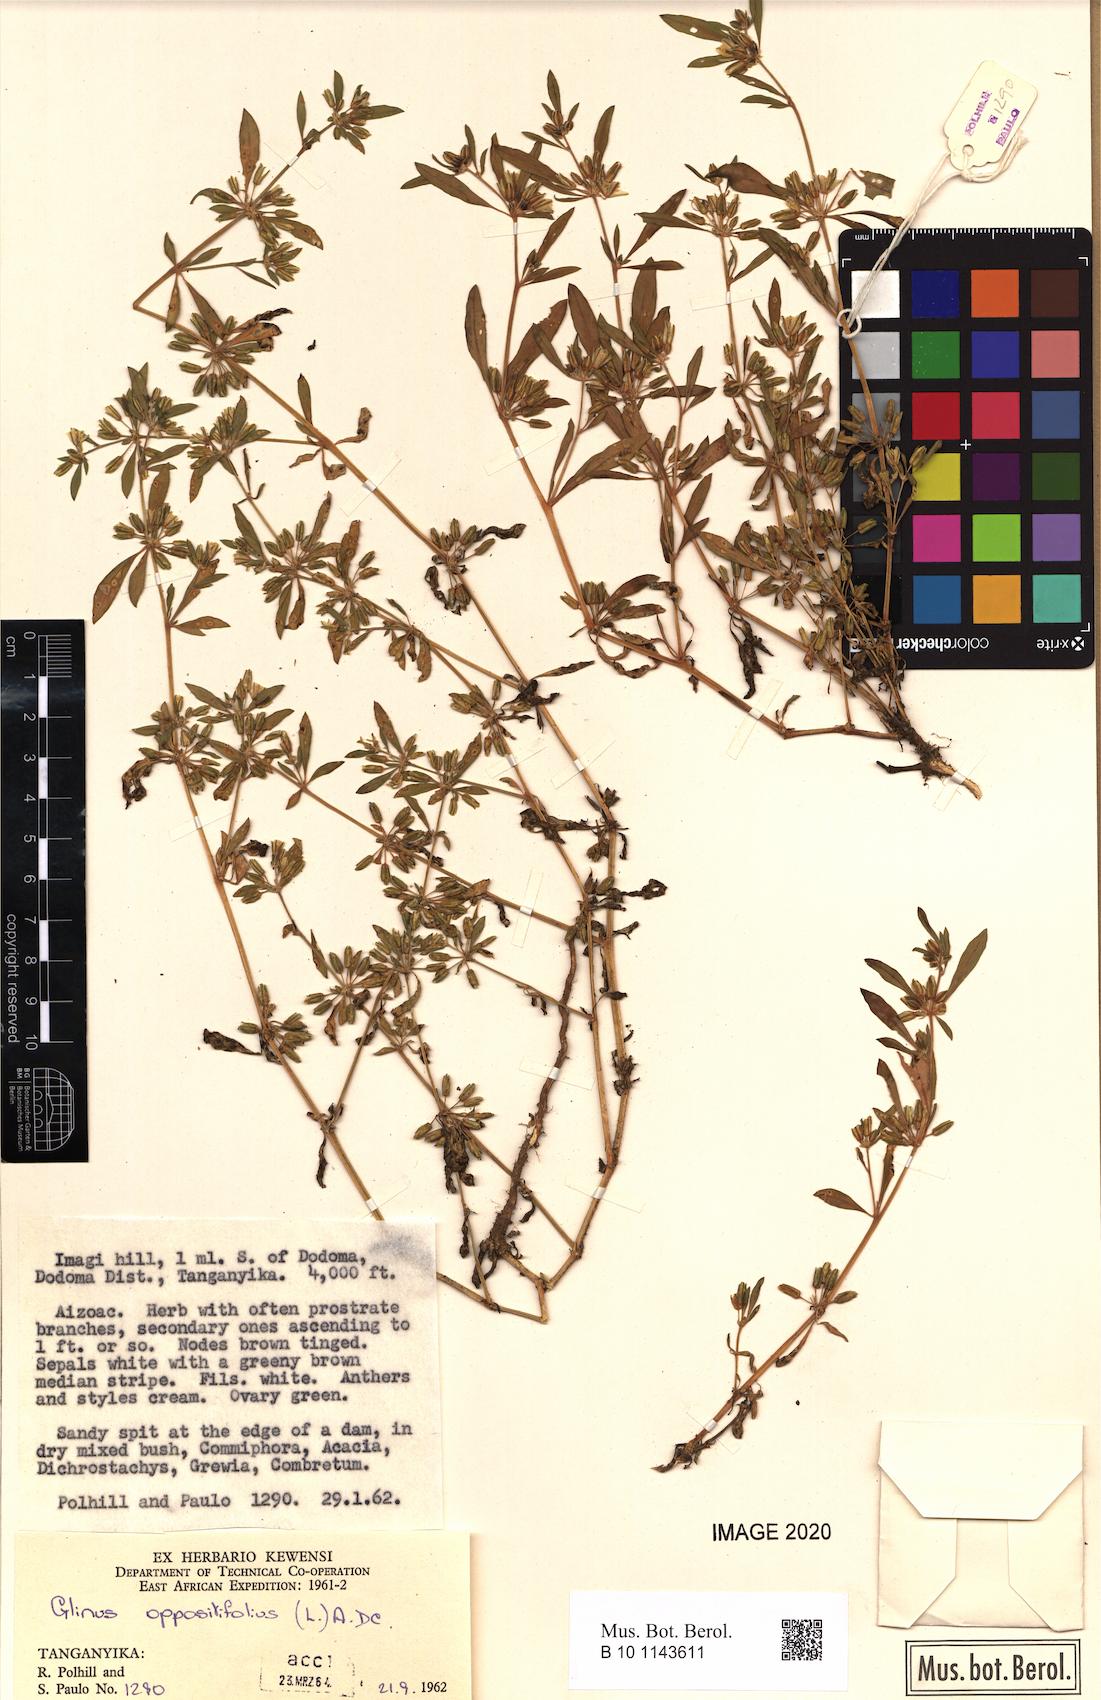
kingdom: Plantae
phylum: Tracheophyta
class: Magnoliopsida
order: Caryophyllales
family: Molluginaceae
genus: Glinus
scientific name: Glinus oppositifolius
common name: Slender carpetweed
